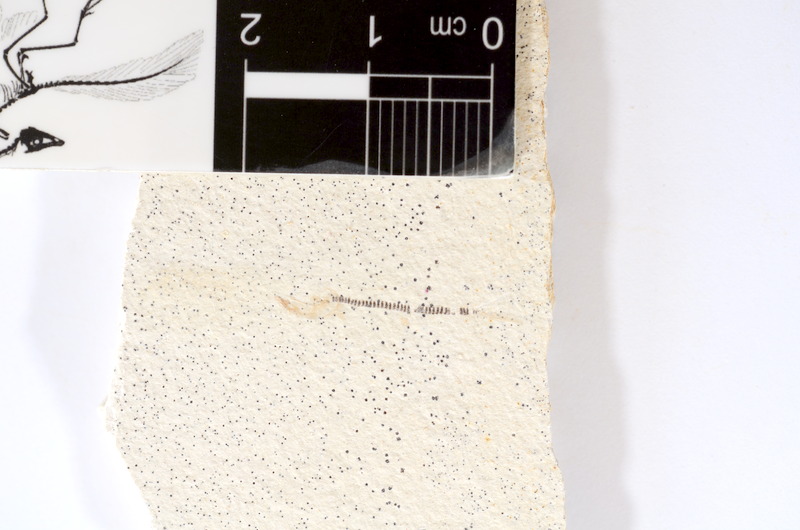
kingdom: Animalia
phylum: Chordata
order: Salmoniformes
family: Orthogonikleithridae
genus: Orthogonikleithrus
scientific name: Orthogonikleithrus hoelli
